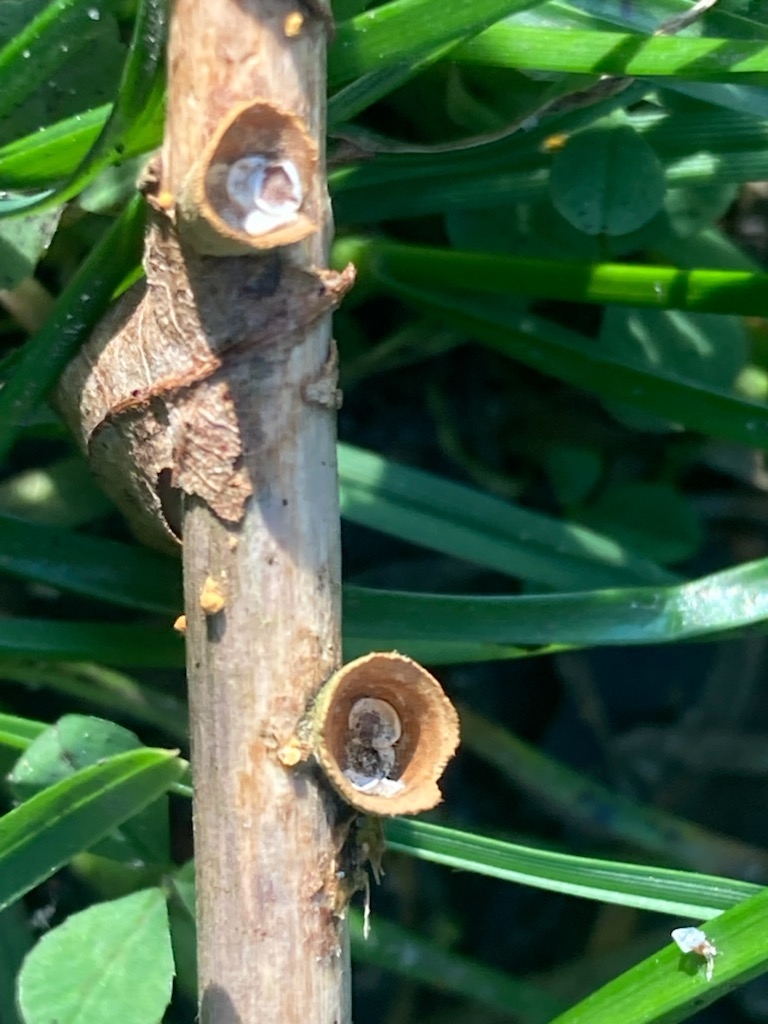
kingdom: Fungi
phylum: Basidiomycota
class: Agaricomycetes
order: Agaricales
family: Nidulariaceae
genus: Crucibulum
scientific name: Crucibulum crucibuliforme
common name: krukkesvamp
